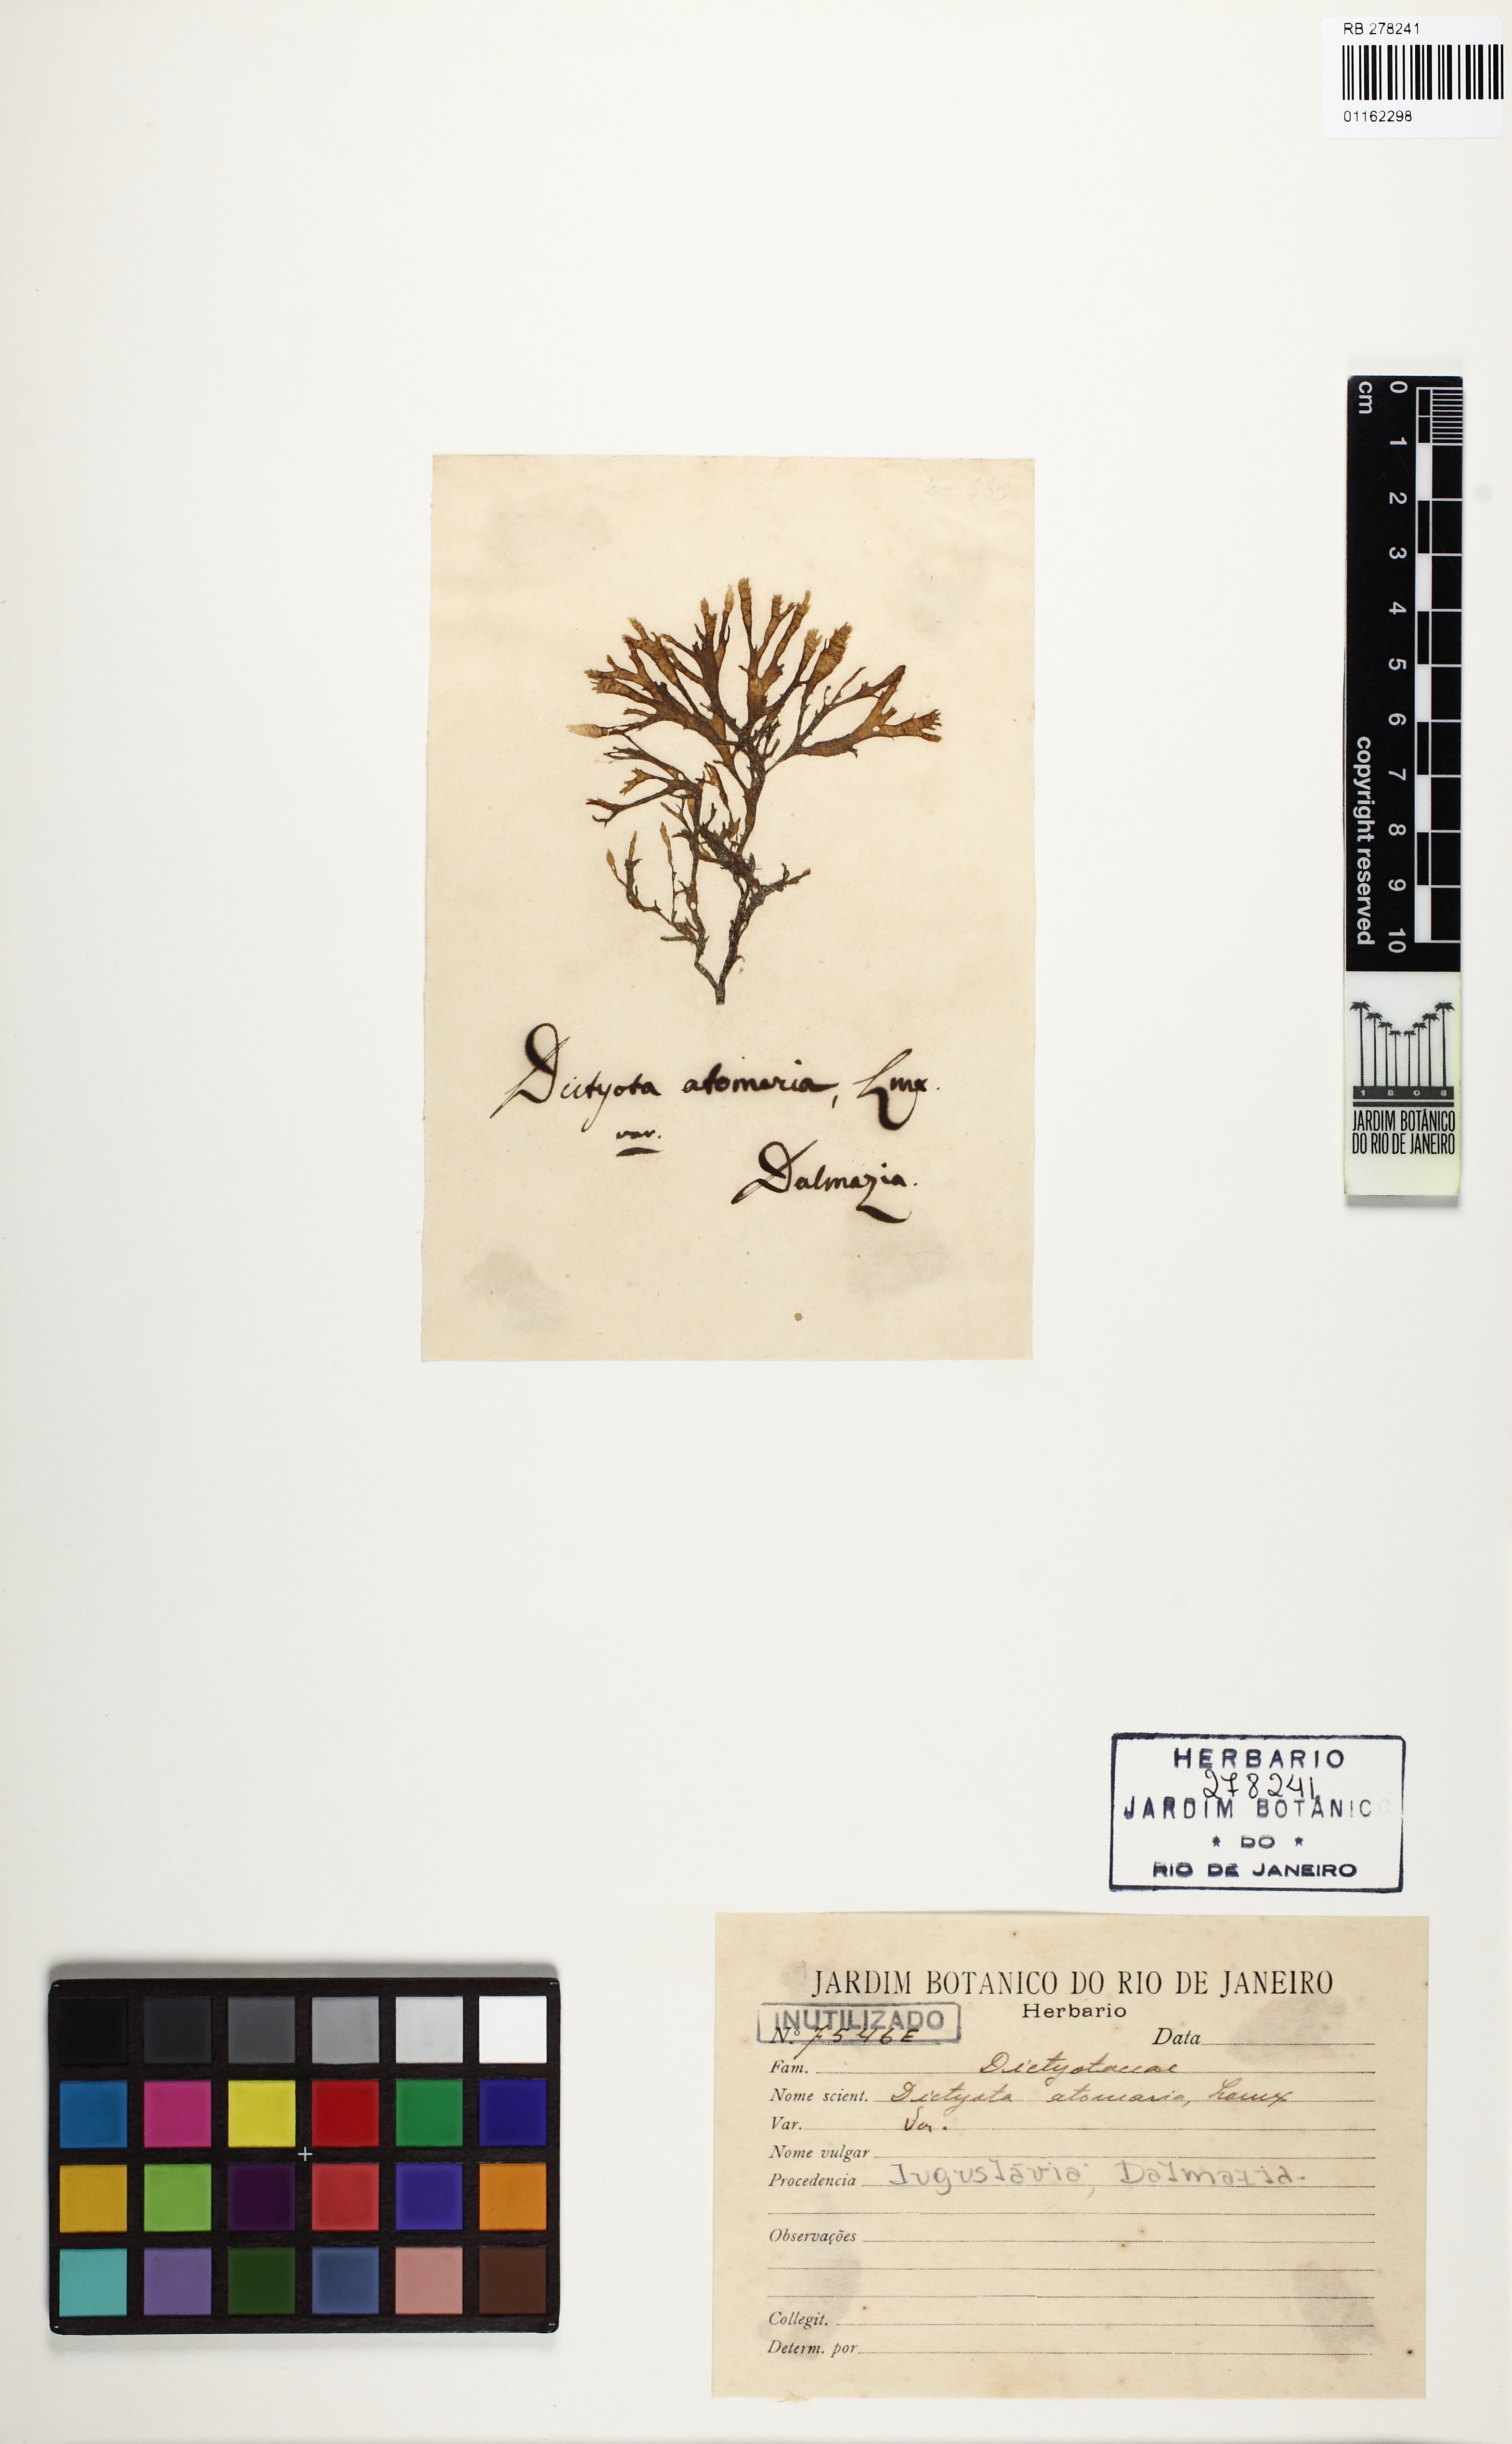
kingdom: Chromista
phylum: Ochrophyta
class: Phaeophyceae
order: Dictyotales
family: Dictyotaceae
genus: Taonia
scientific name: Taonia atomaria
